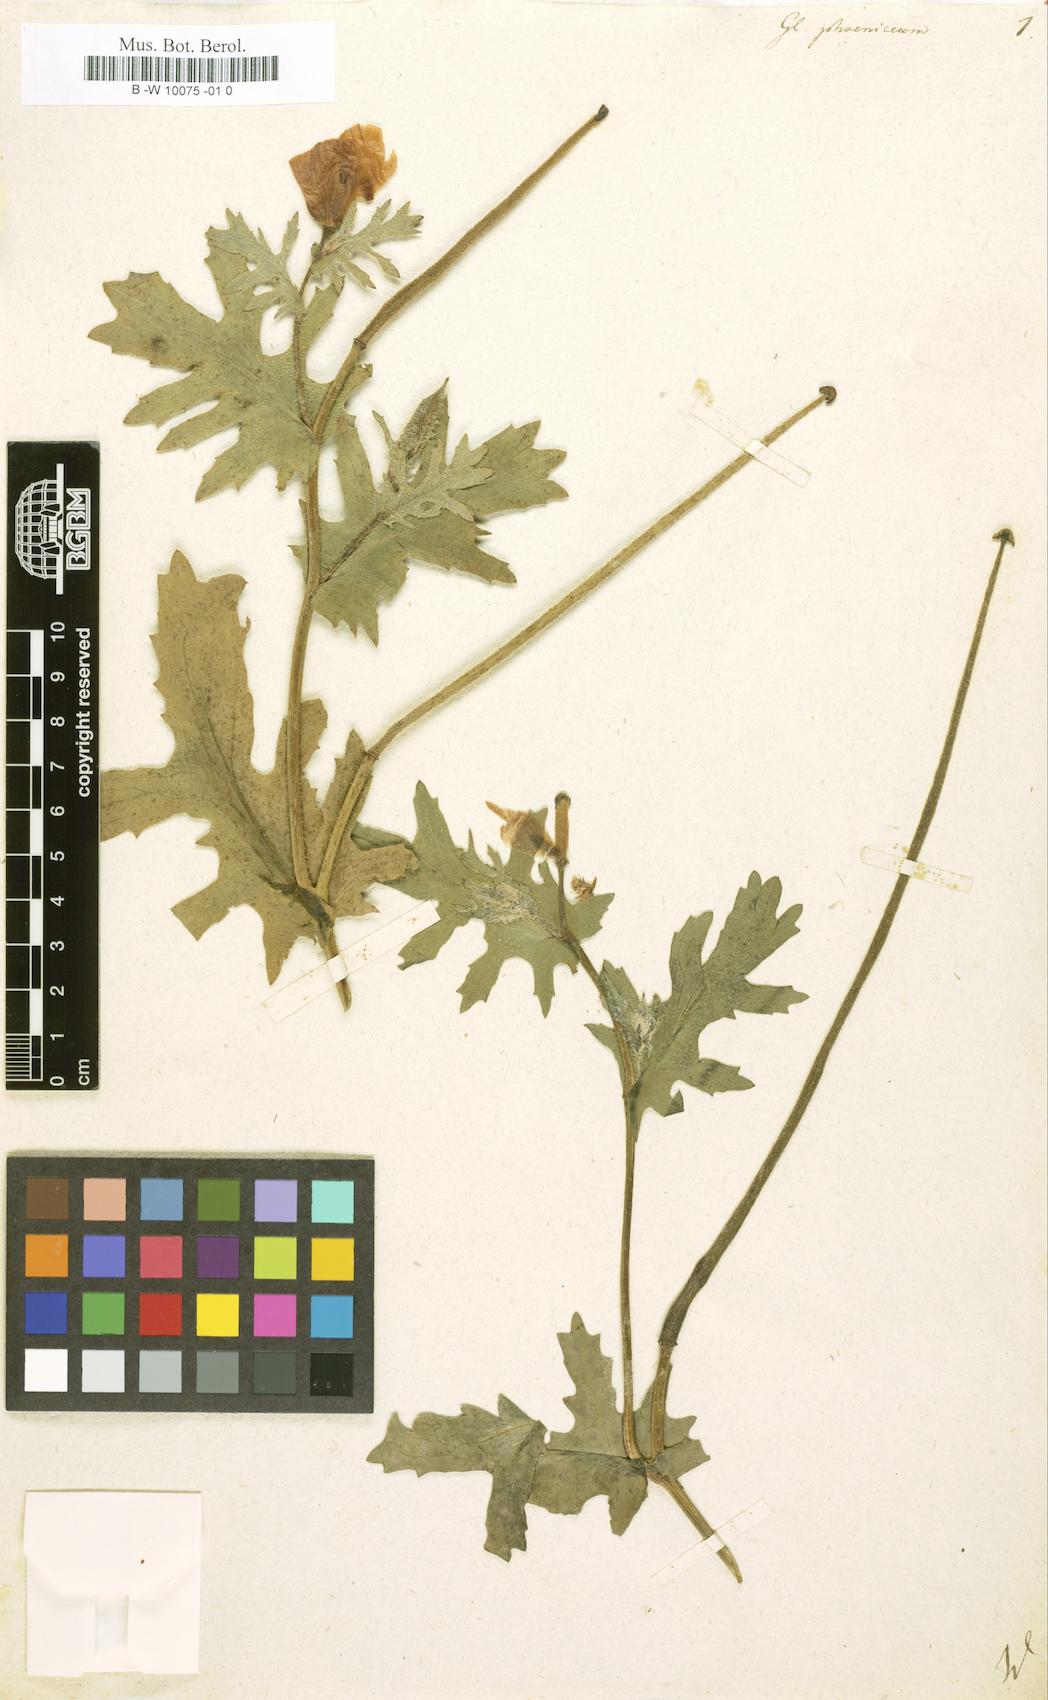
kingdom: Plantae
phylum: Tracheophyta
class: Magnoliopsida
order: Ranunculales
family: Papaveraceae
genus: Glaucium
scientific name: Glaucium
